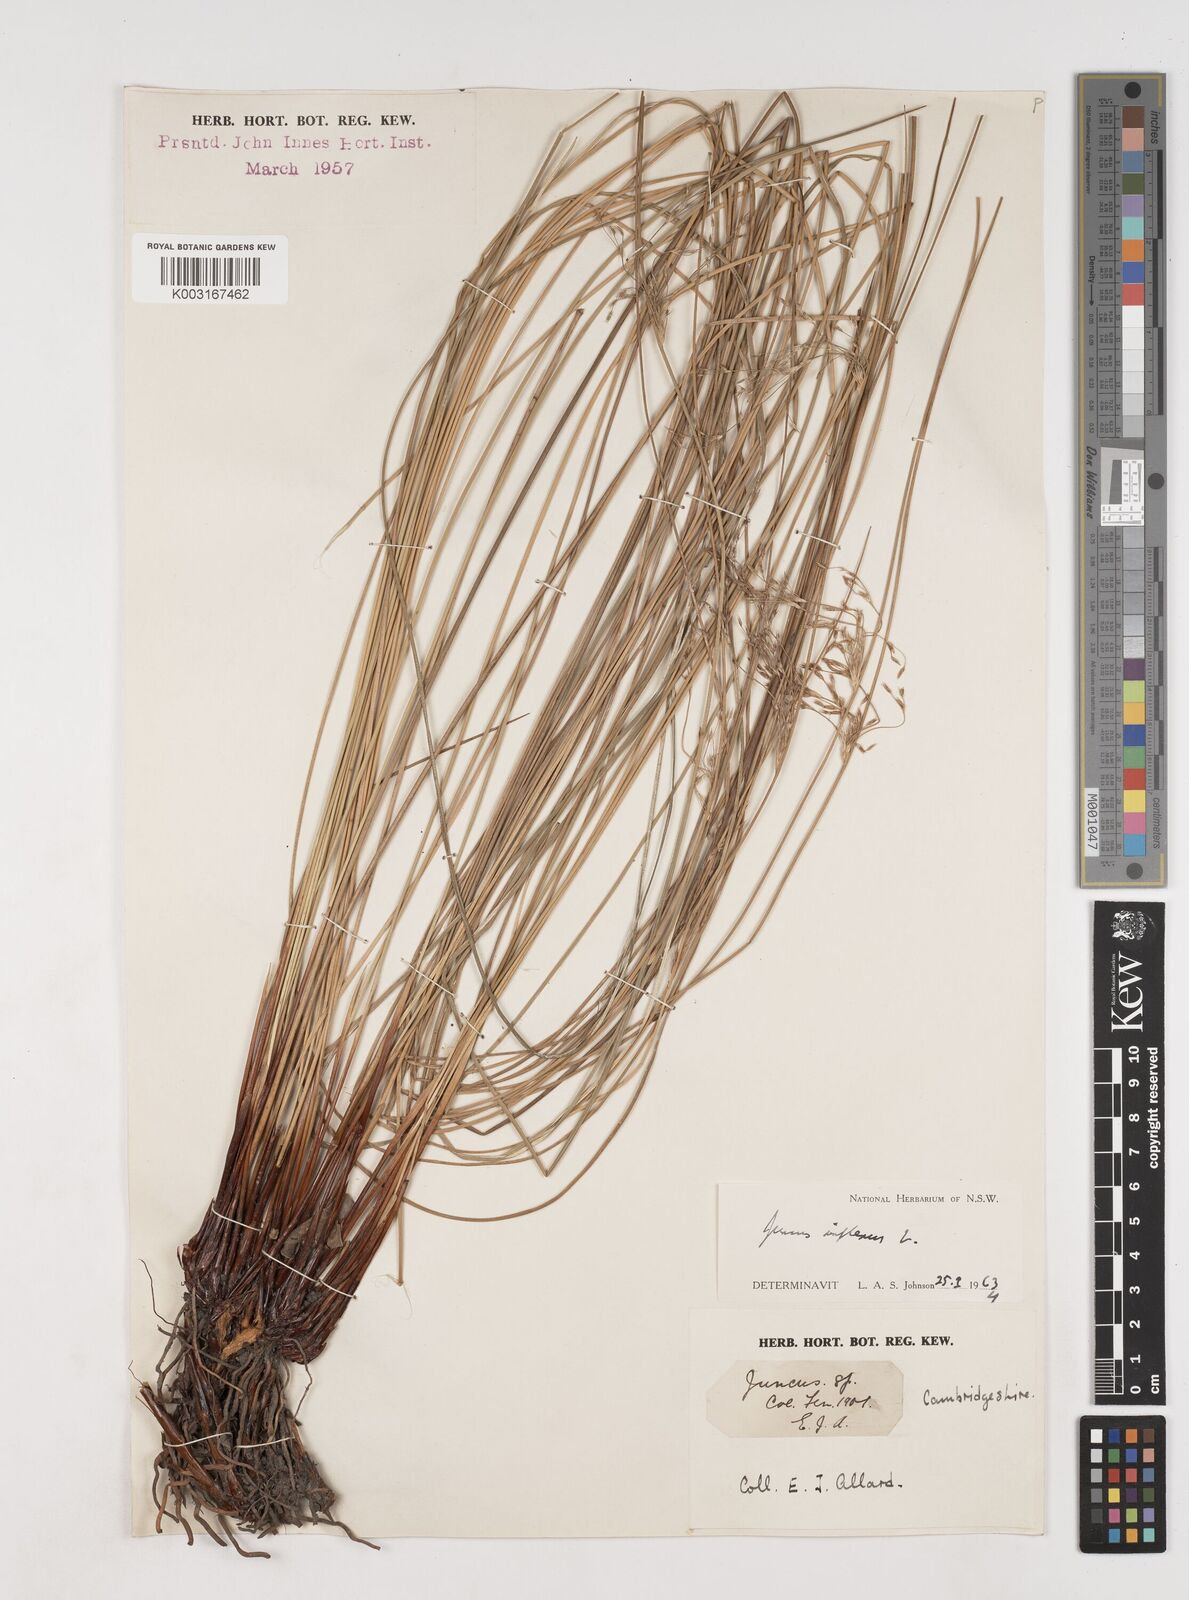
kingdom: Plantae
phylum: Tracheophyta
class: Liliopsida
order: Poales
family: Juncaceae
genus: Juncus
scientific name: Juncus inflexus
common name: Hard rush
